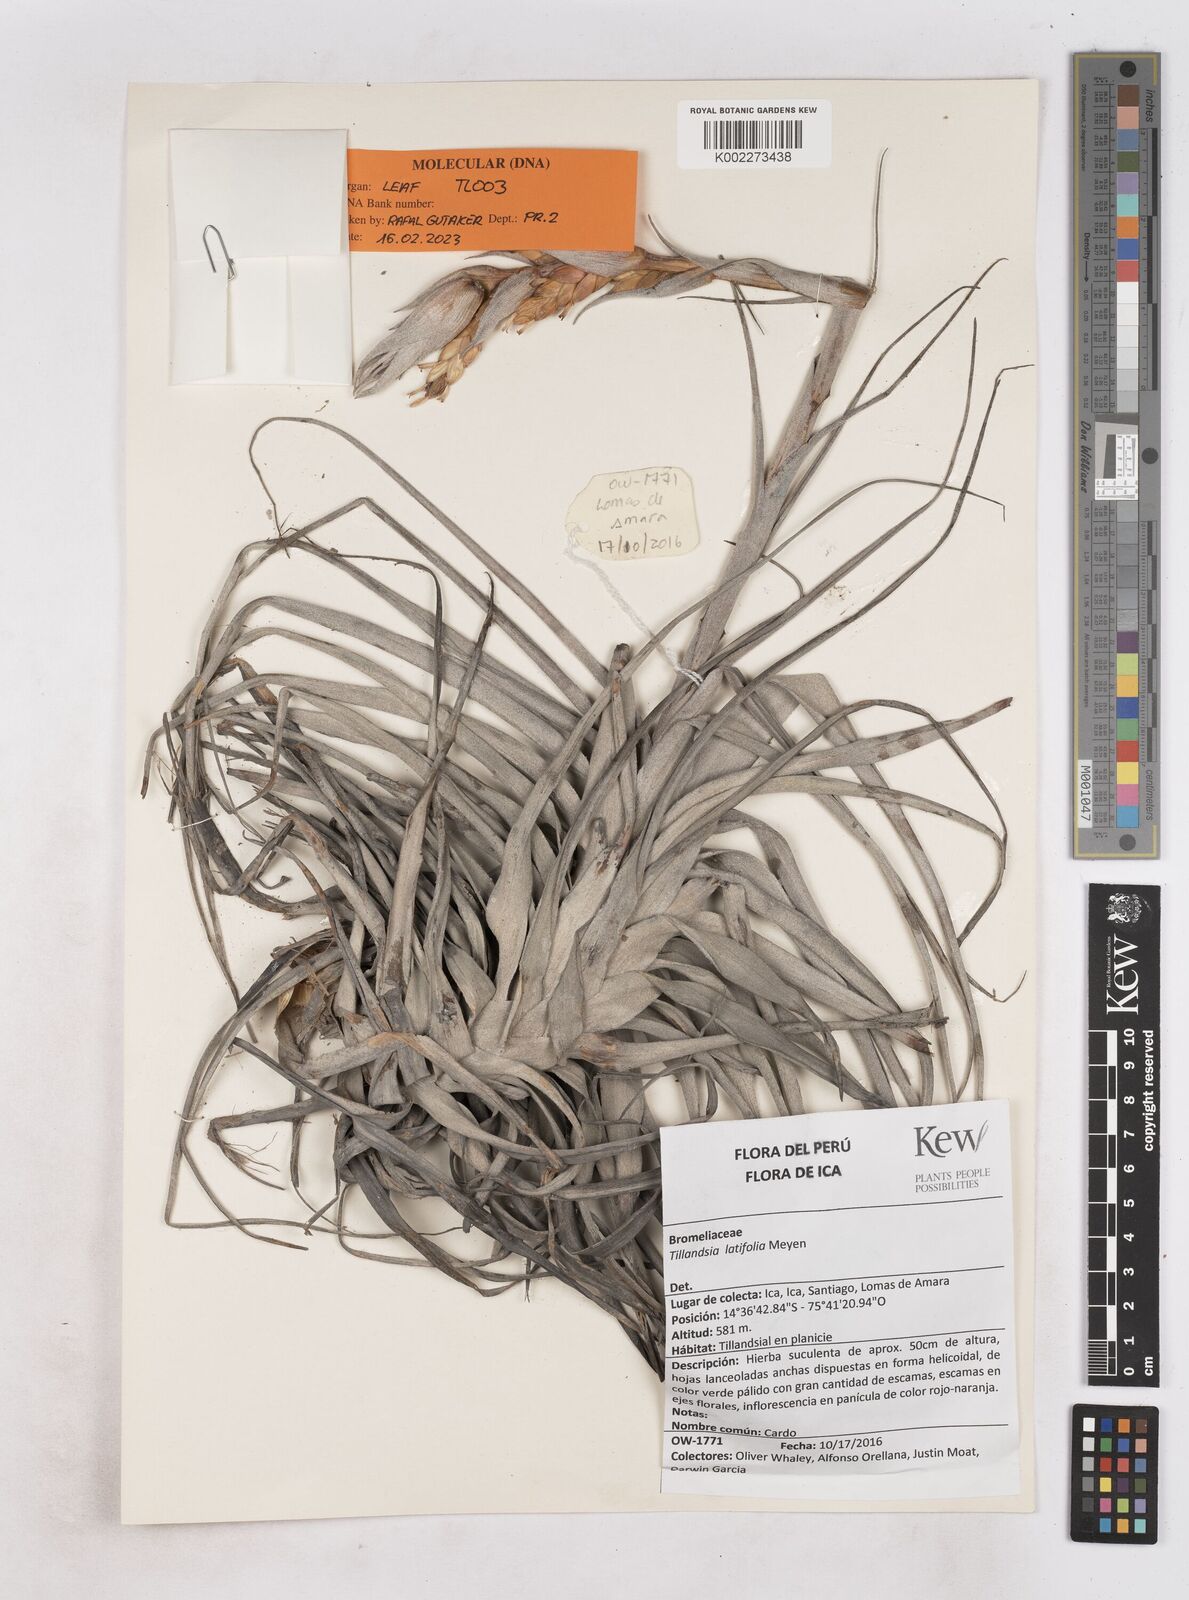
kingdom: Plantae
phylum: Tracheophyta
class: Liliopsida
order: Poales
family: Bromeliaceae
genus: Tillandsia
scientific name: Tillandsia latifolia
